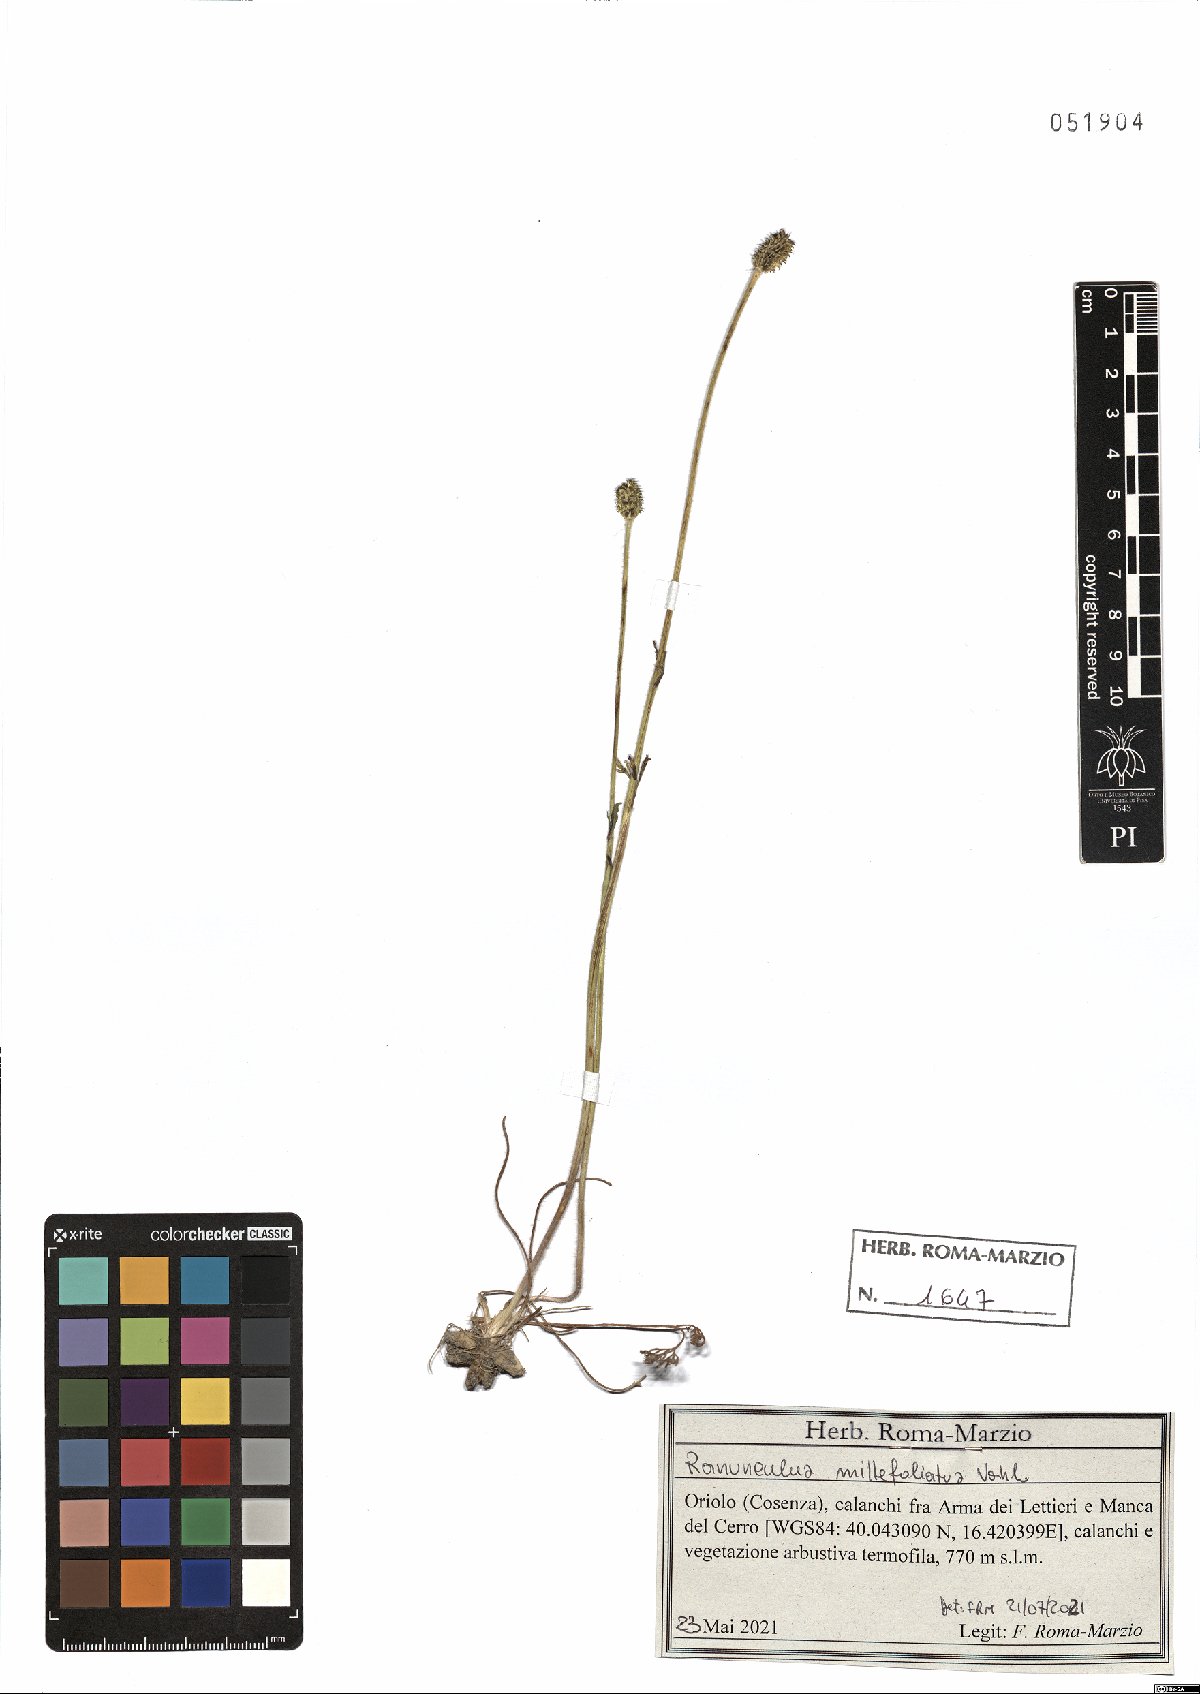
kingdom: Plantae
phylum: Tracheophyta
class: Magnoliopsida
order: Ranunculales
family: Ranunculaceae
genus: Ranunculus
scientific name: Ranunculus millefoliatus
